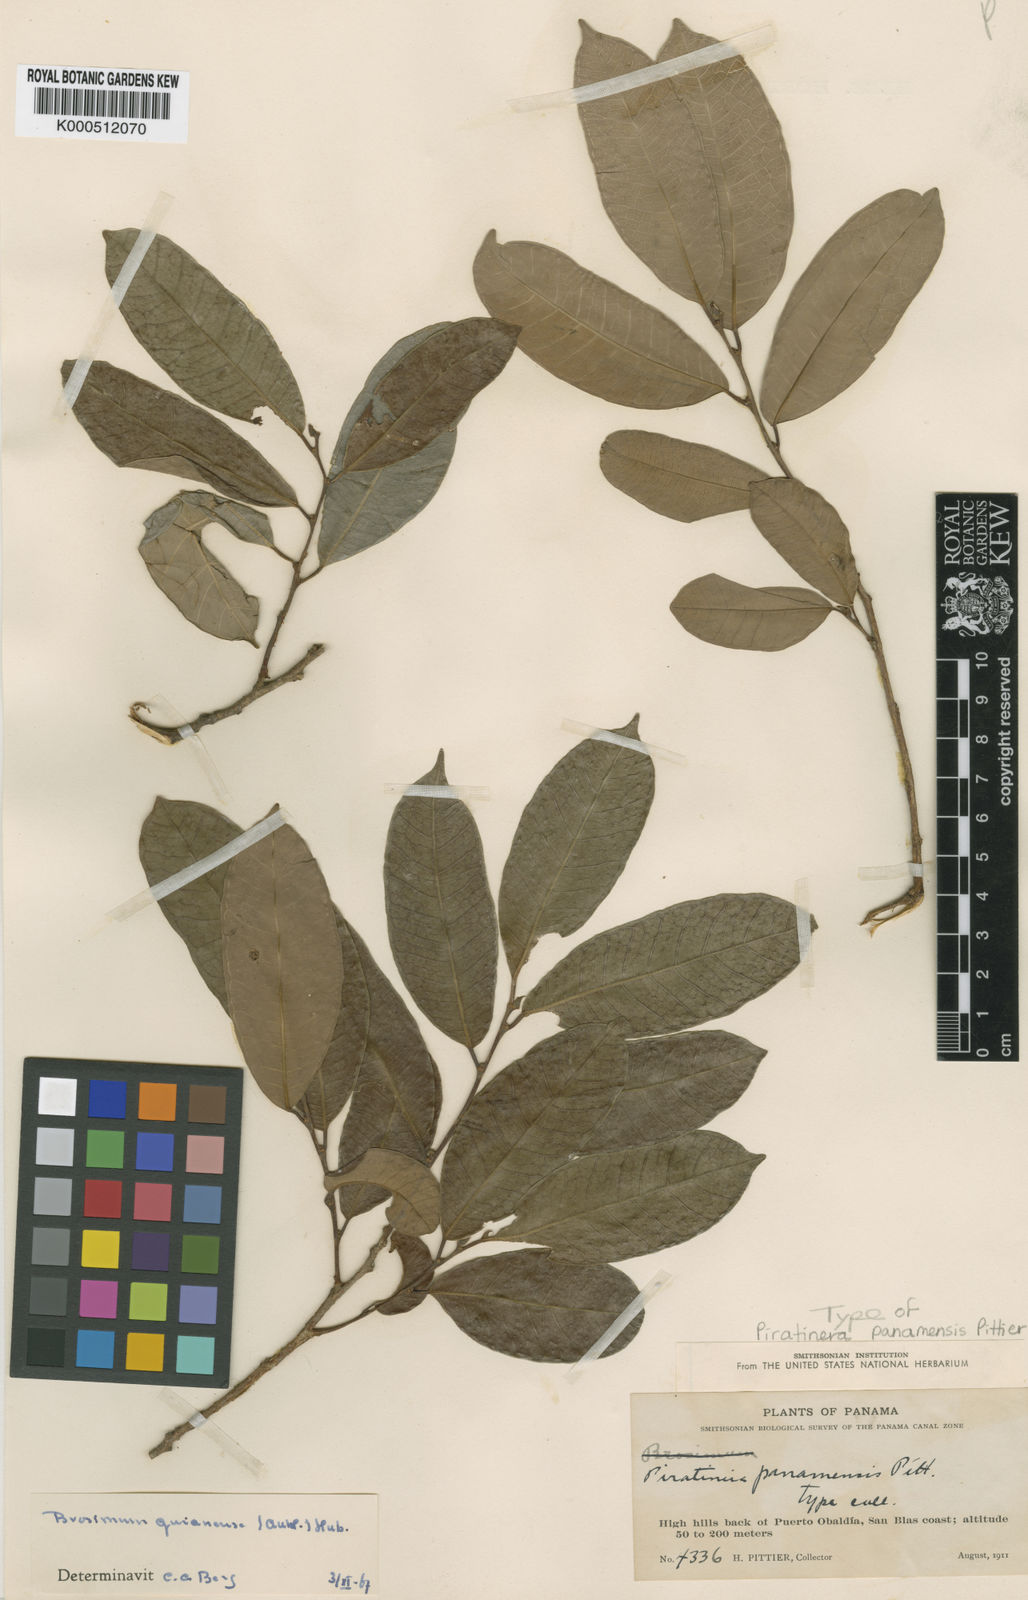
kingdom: Plantae
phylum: Tracheophyta
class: Magnoliopsida
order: Rosales
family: Moraceae
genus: Brosimum
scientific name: Brosimum
